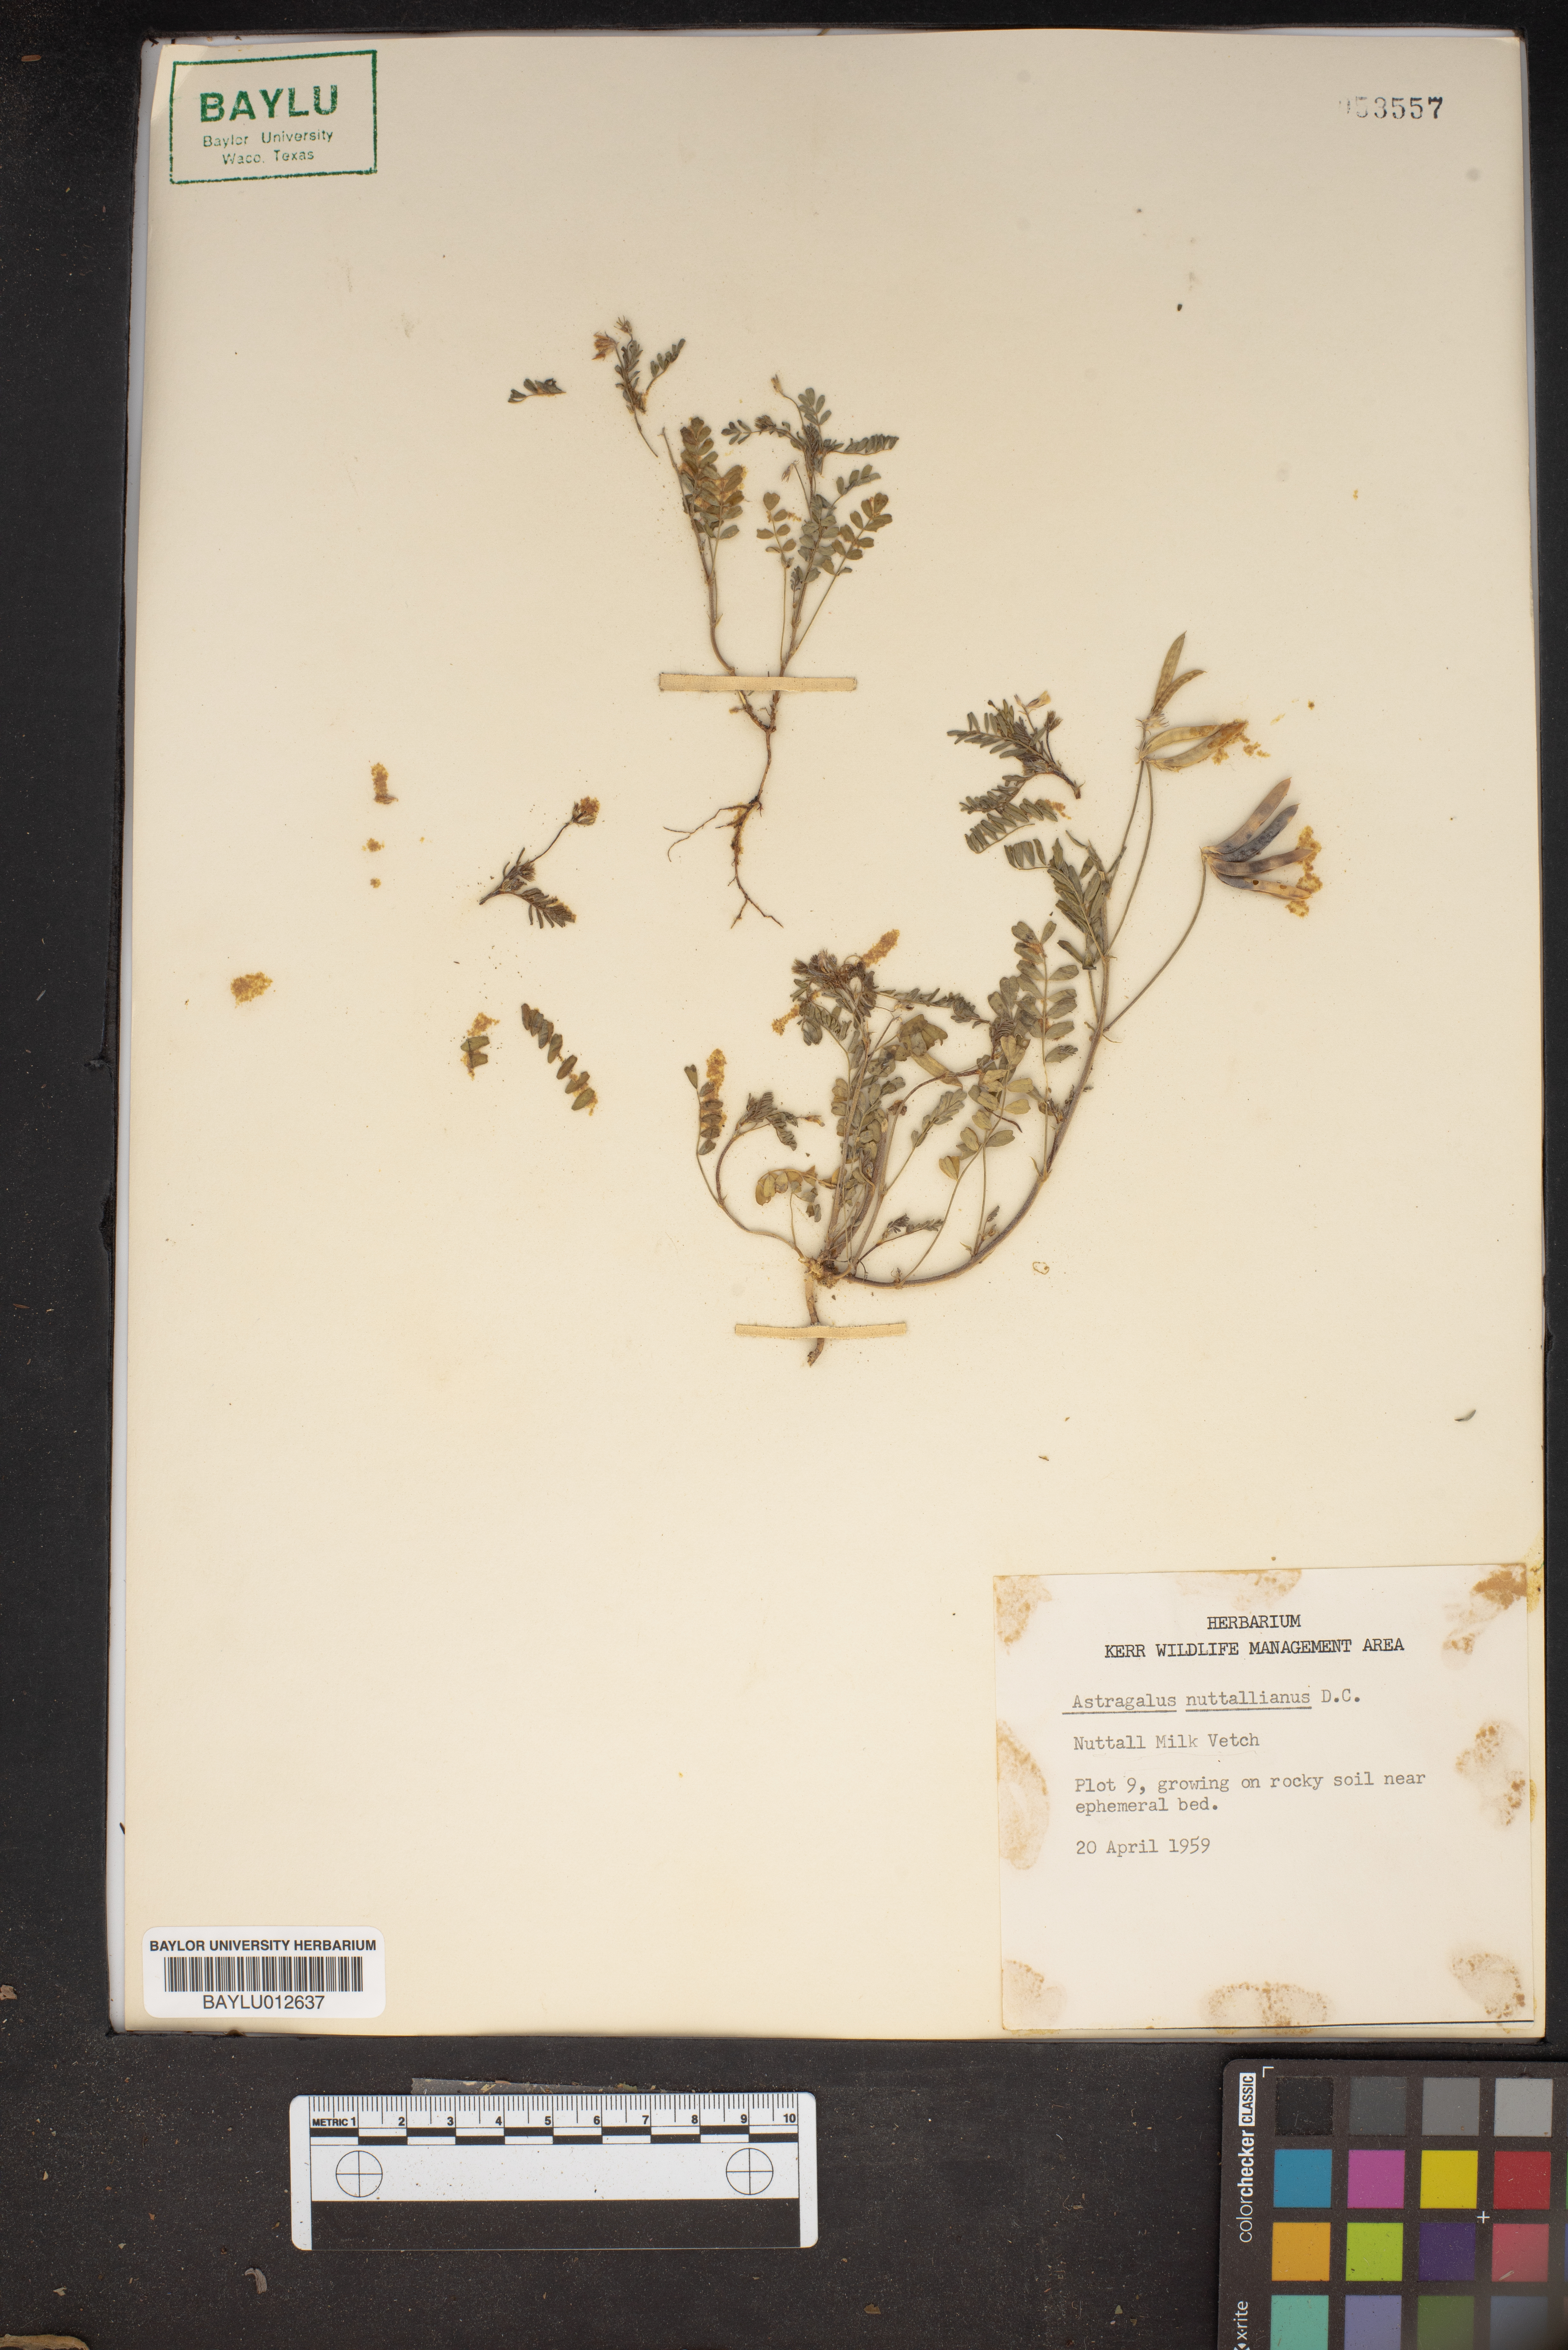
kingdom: Plantae
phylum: Tracheophyta
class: Magnoliopsida
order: Fabales
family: Fabaceae
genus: Astragalus
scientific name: Astragalus nuttallianus
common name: Smallflowered milkvetch
